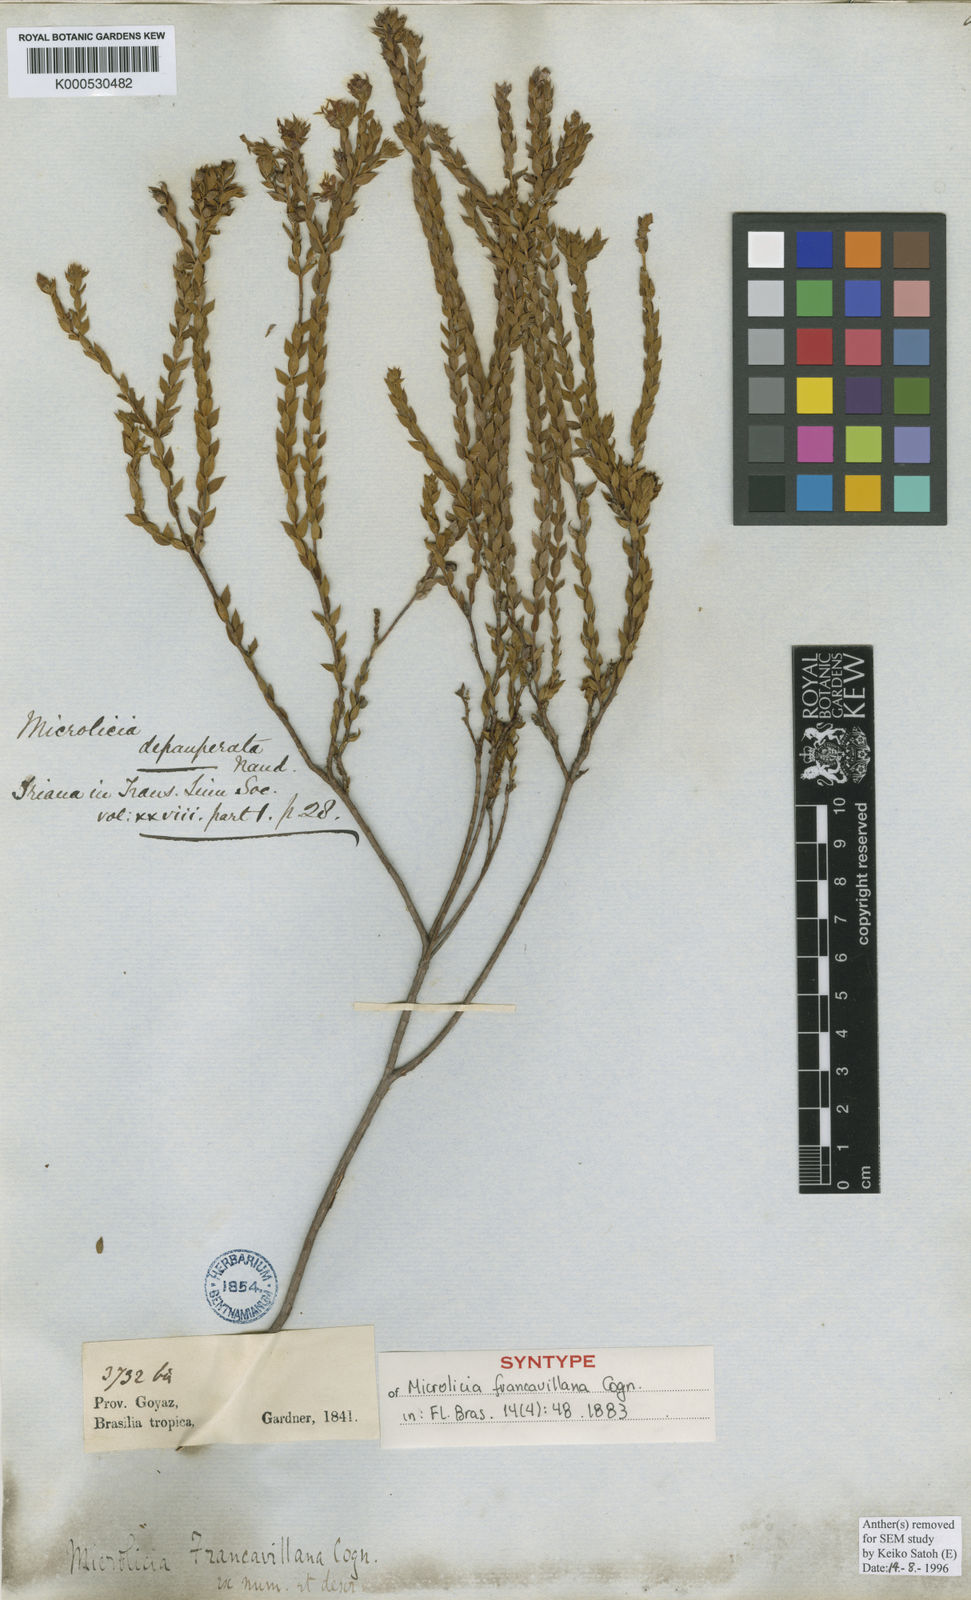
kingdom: Plantae
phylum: Tracheophyta
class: Magnoliopsida
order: Myrtales
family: Melastomataceae
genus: Microlicia
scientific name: Microlicia
